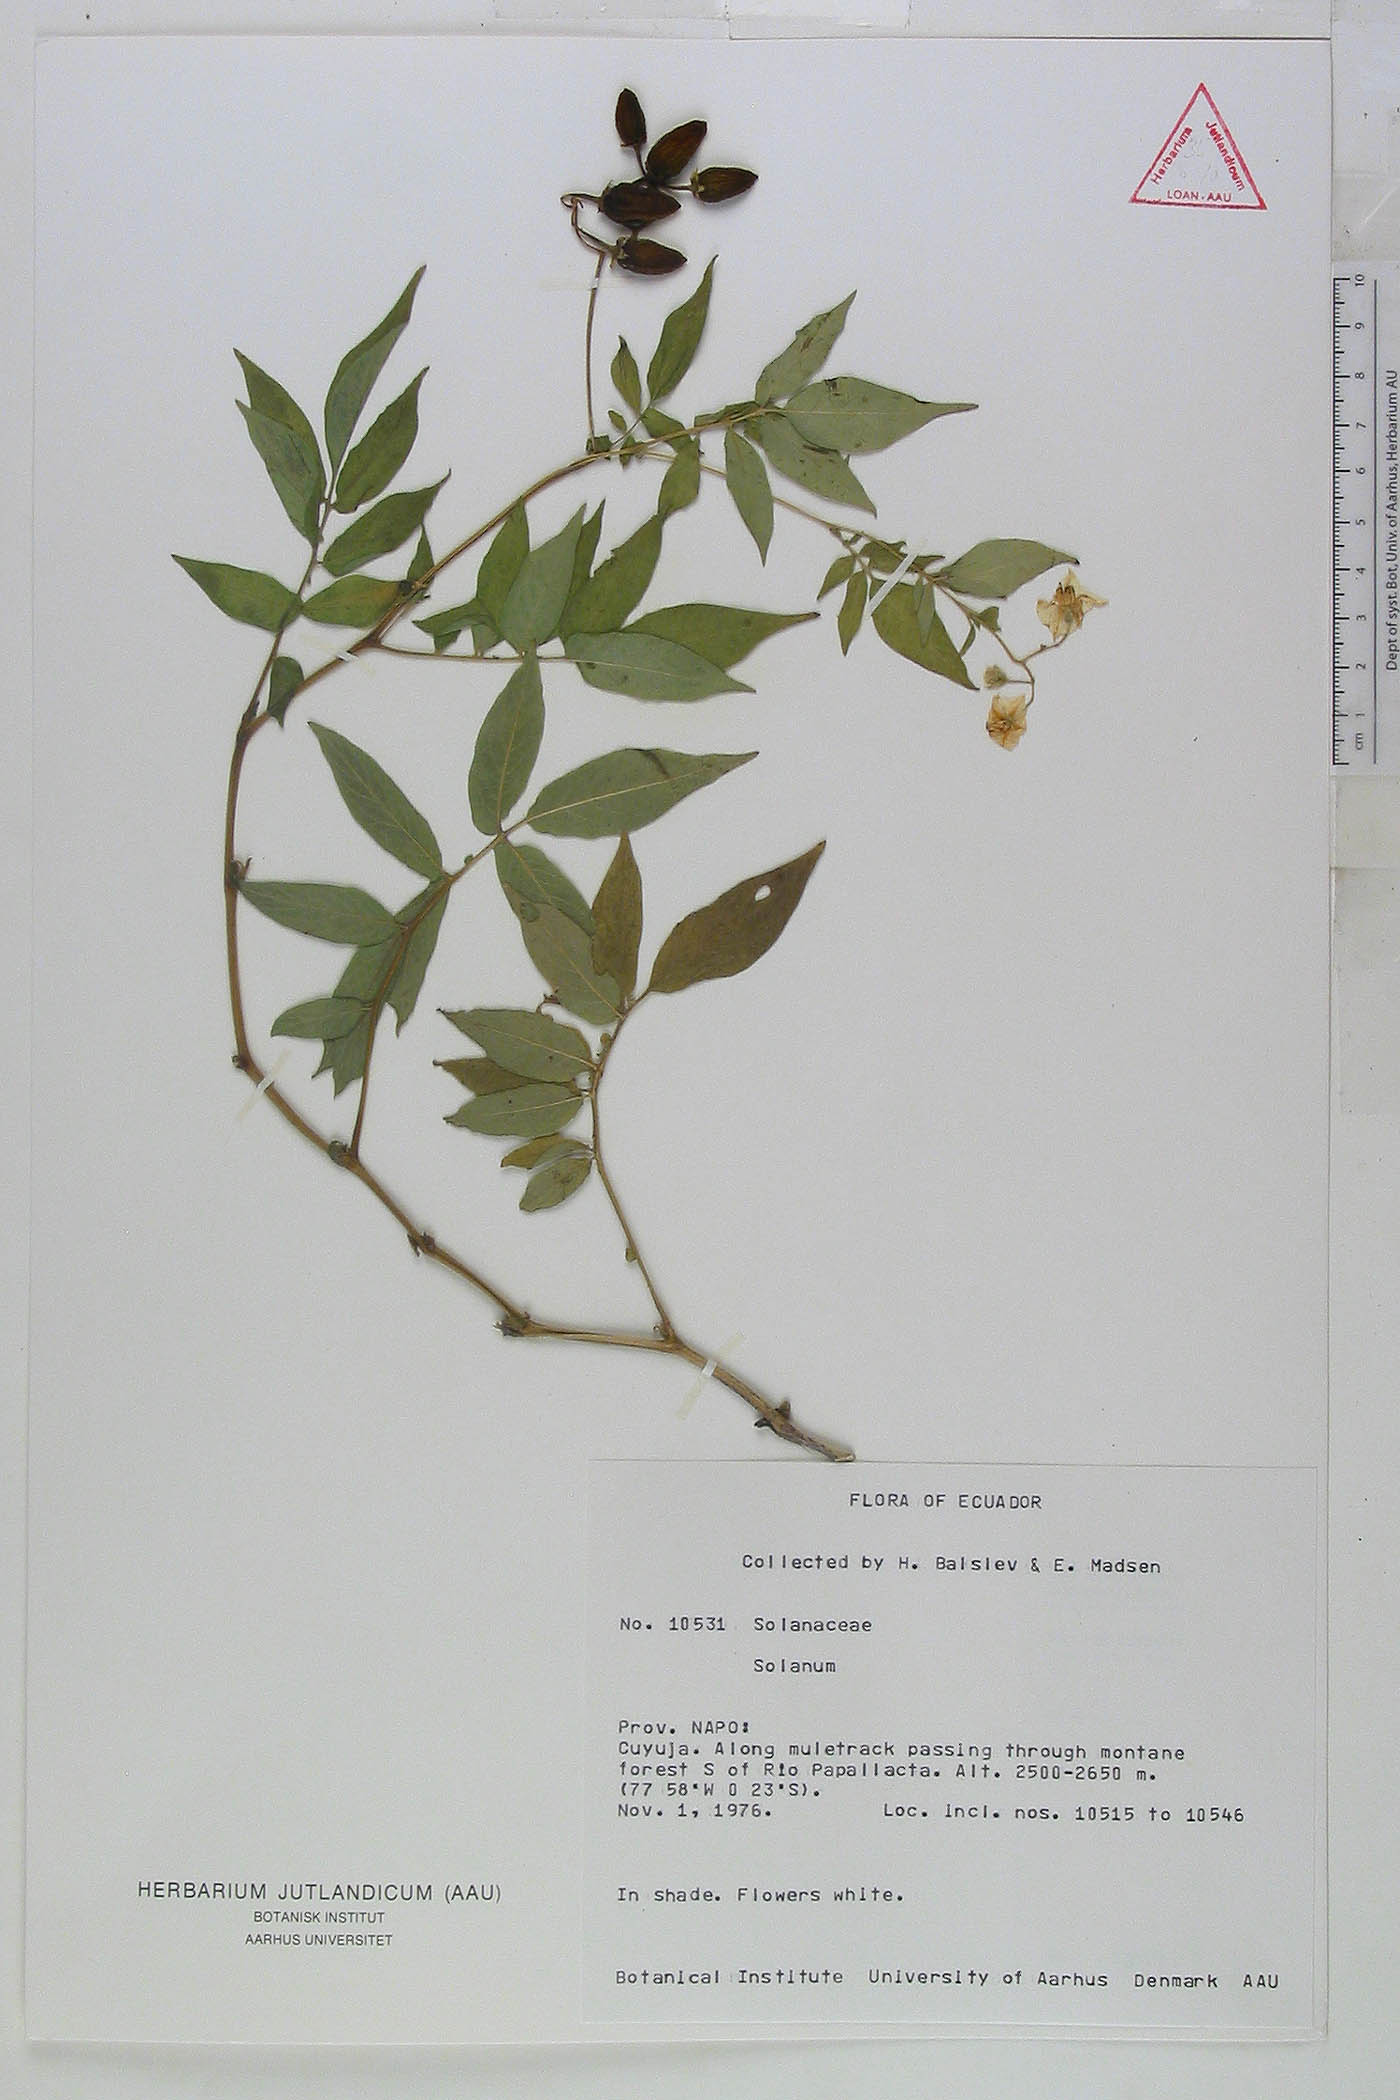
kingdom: Plantae
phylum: Tracheophyta
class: Magnoliopsida
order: Solanales
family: Solanaceae
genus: Solanum
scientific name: Solanum colombianum
